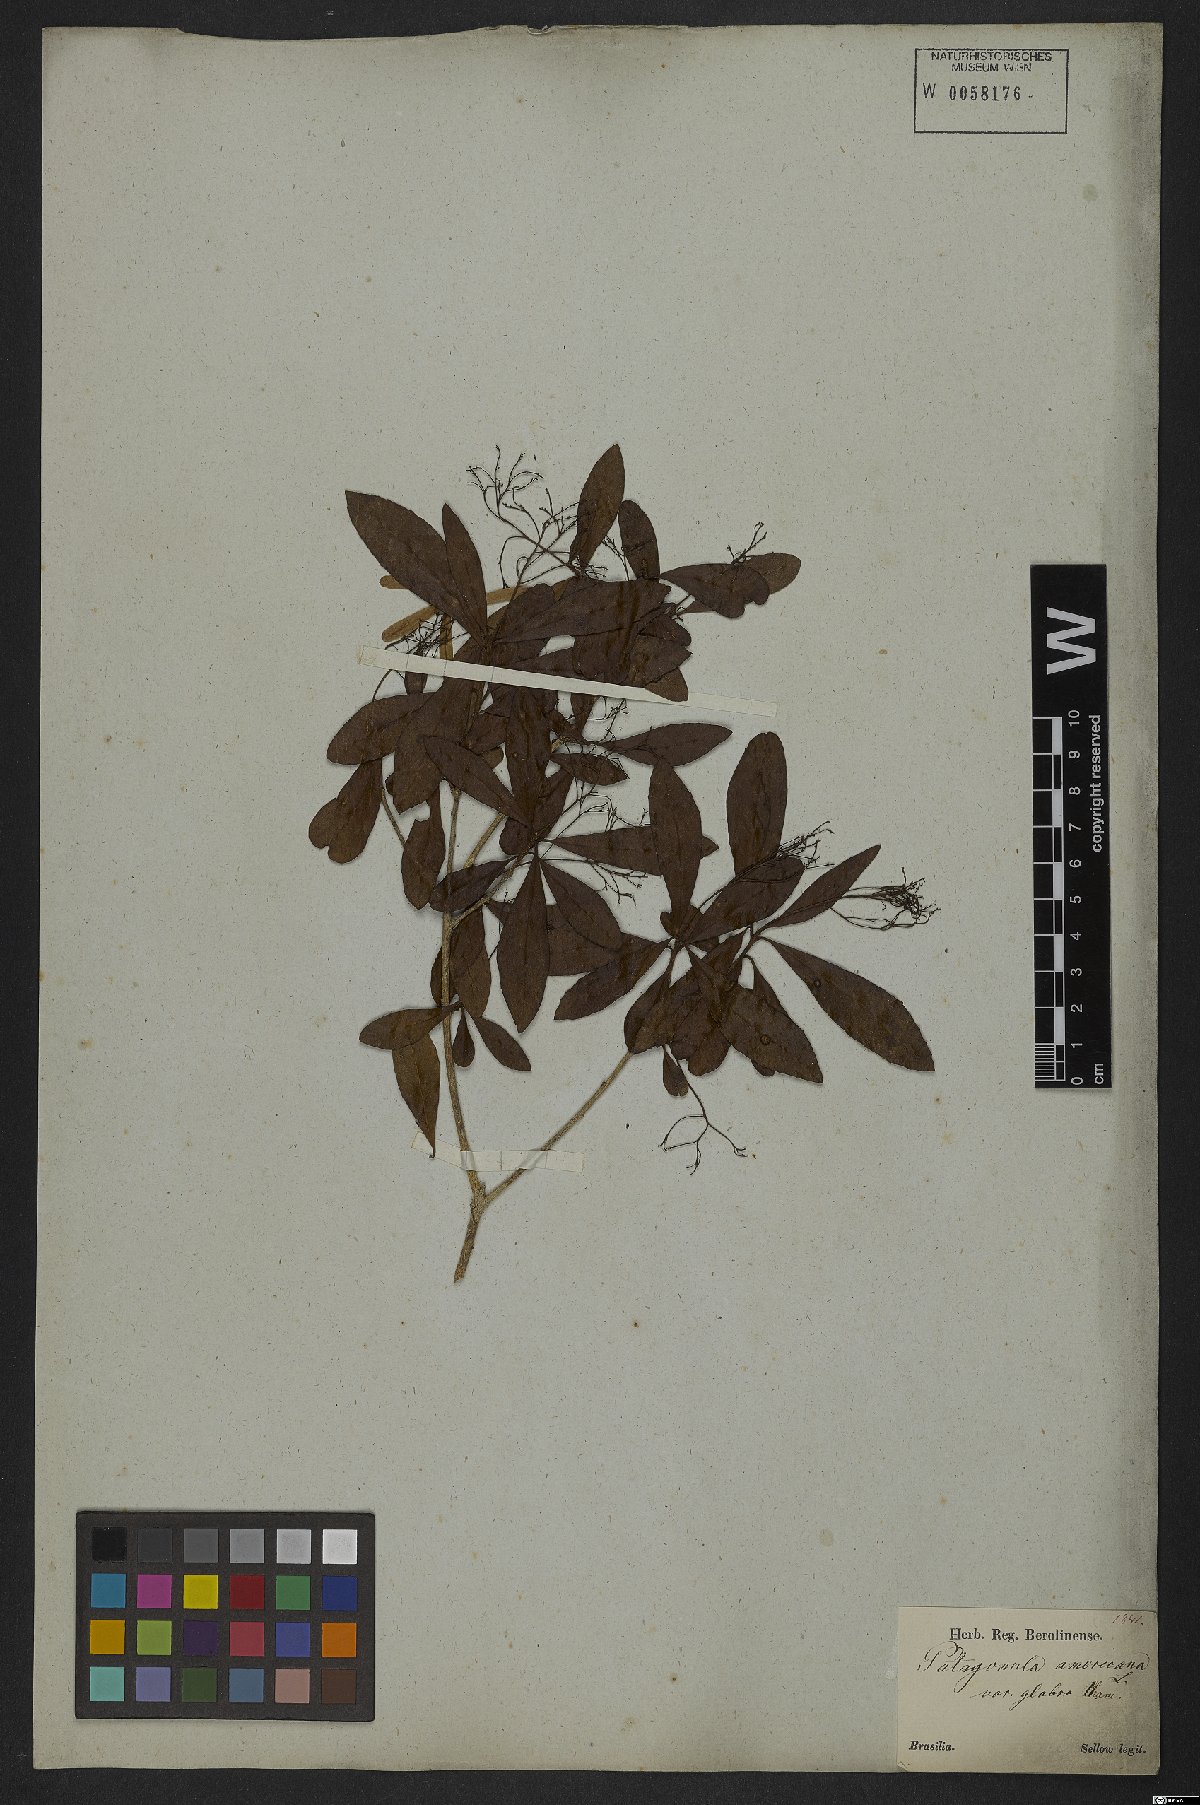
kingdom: Plantae
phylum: Tracheophyta
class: Magnoliopsida
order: Boraginales
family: Cordiaceae
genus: Cordia
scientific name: Cordia americana
